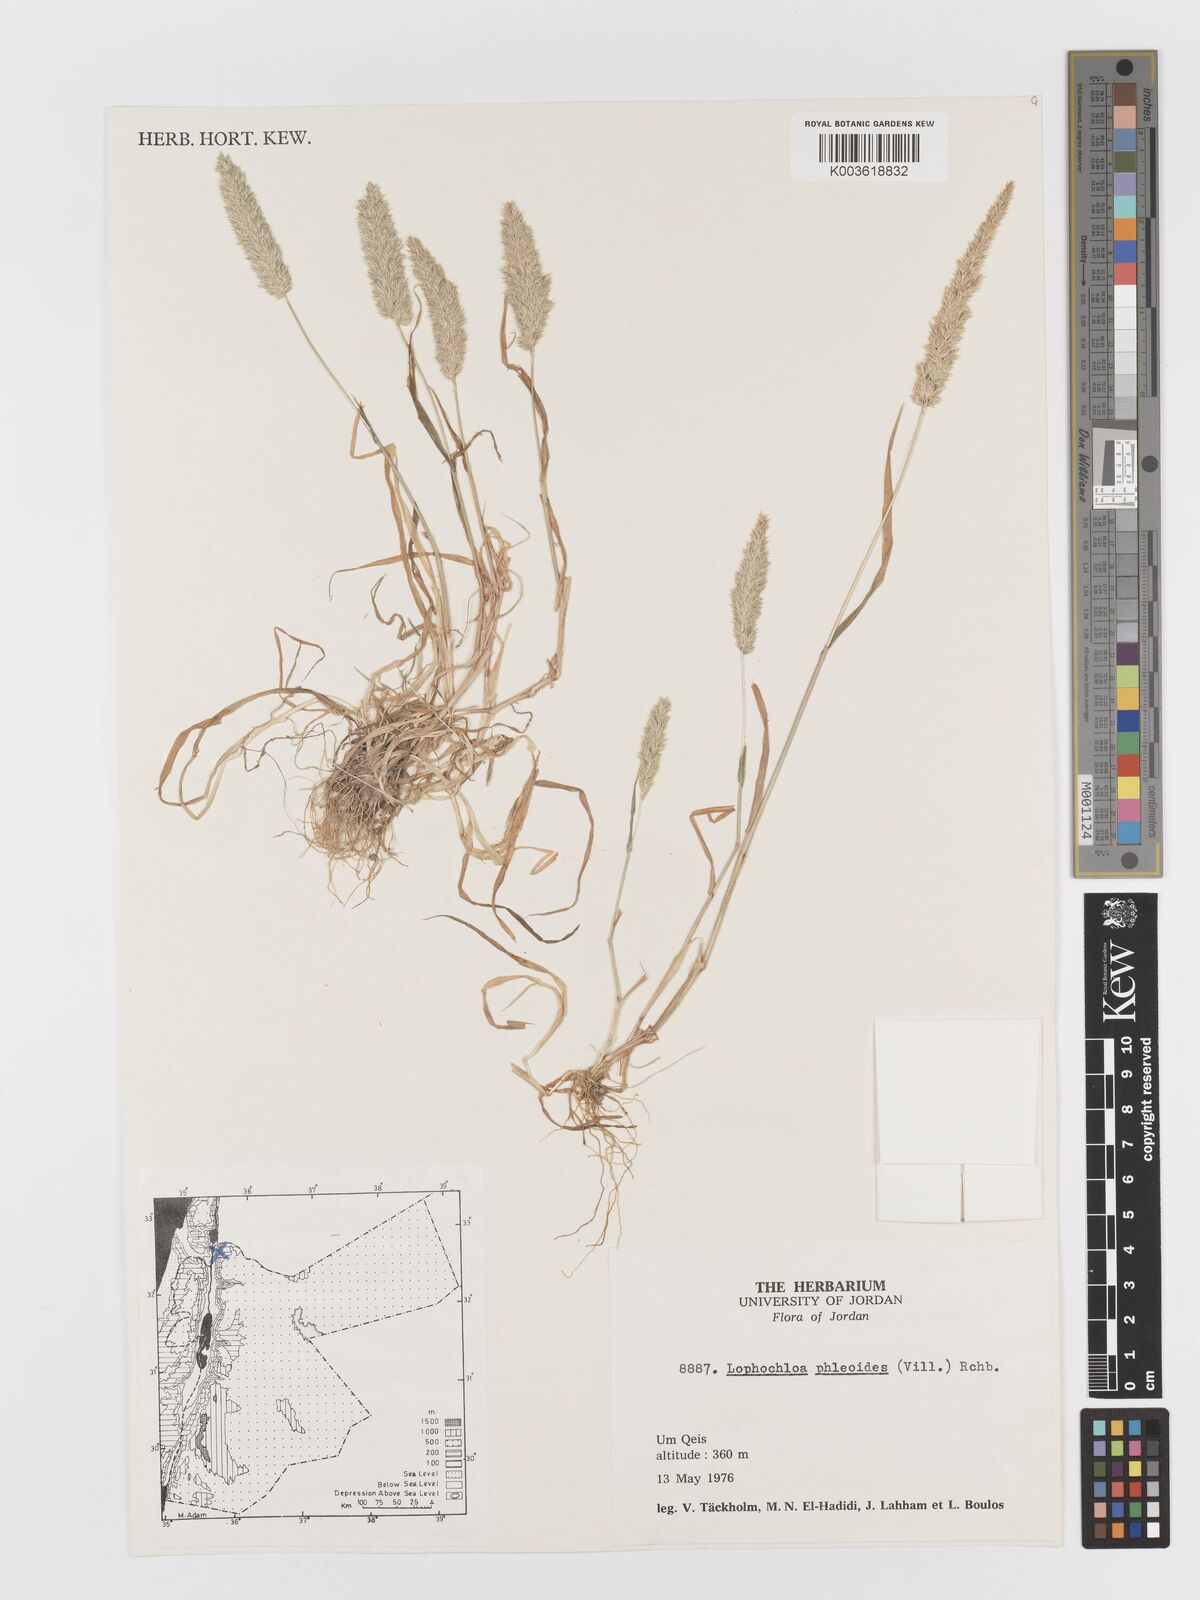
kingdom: Plantae
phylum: Tracheophyta
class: Liliopsida
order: Poales
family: Poaceae
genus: Rostraria
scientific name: Rostraria cristata
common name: Mediterranean hair-grass
